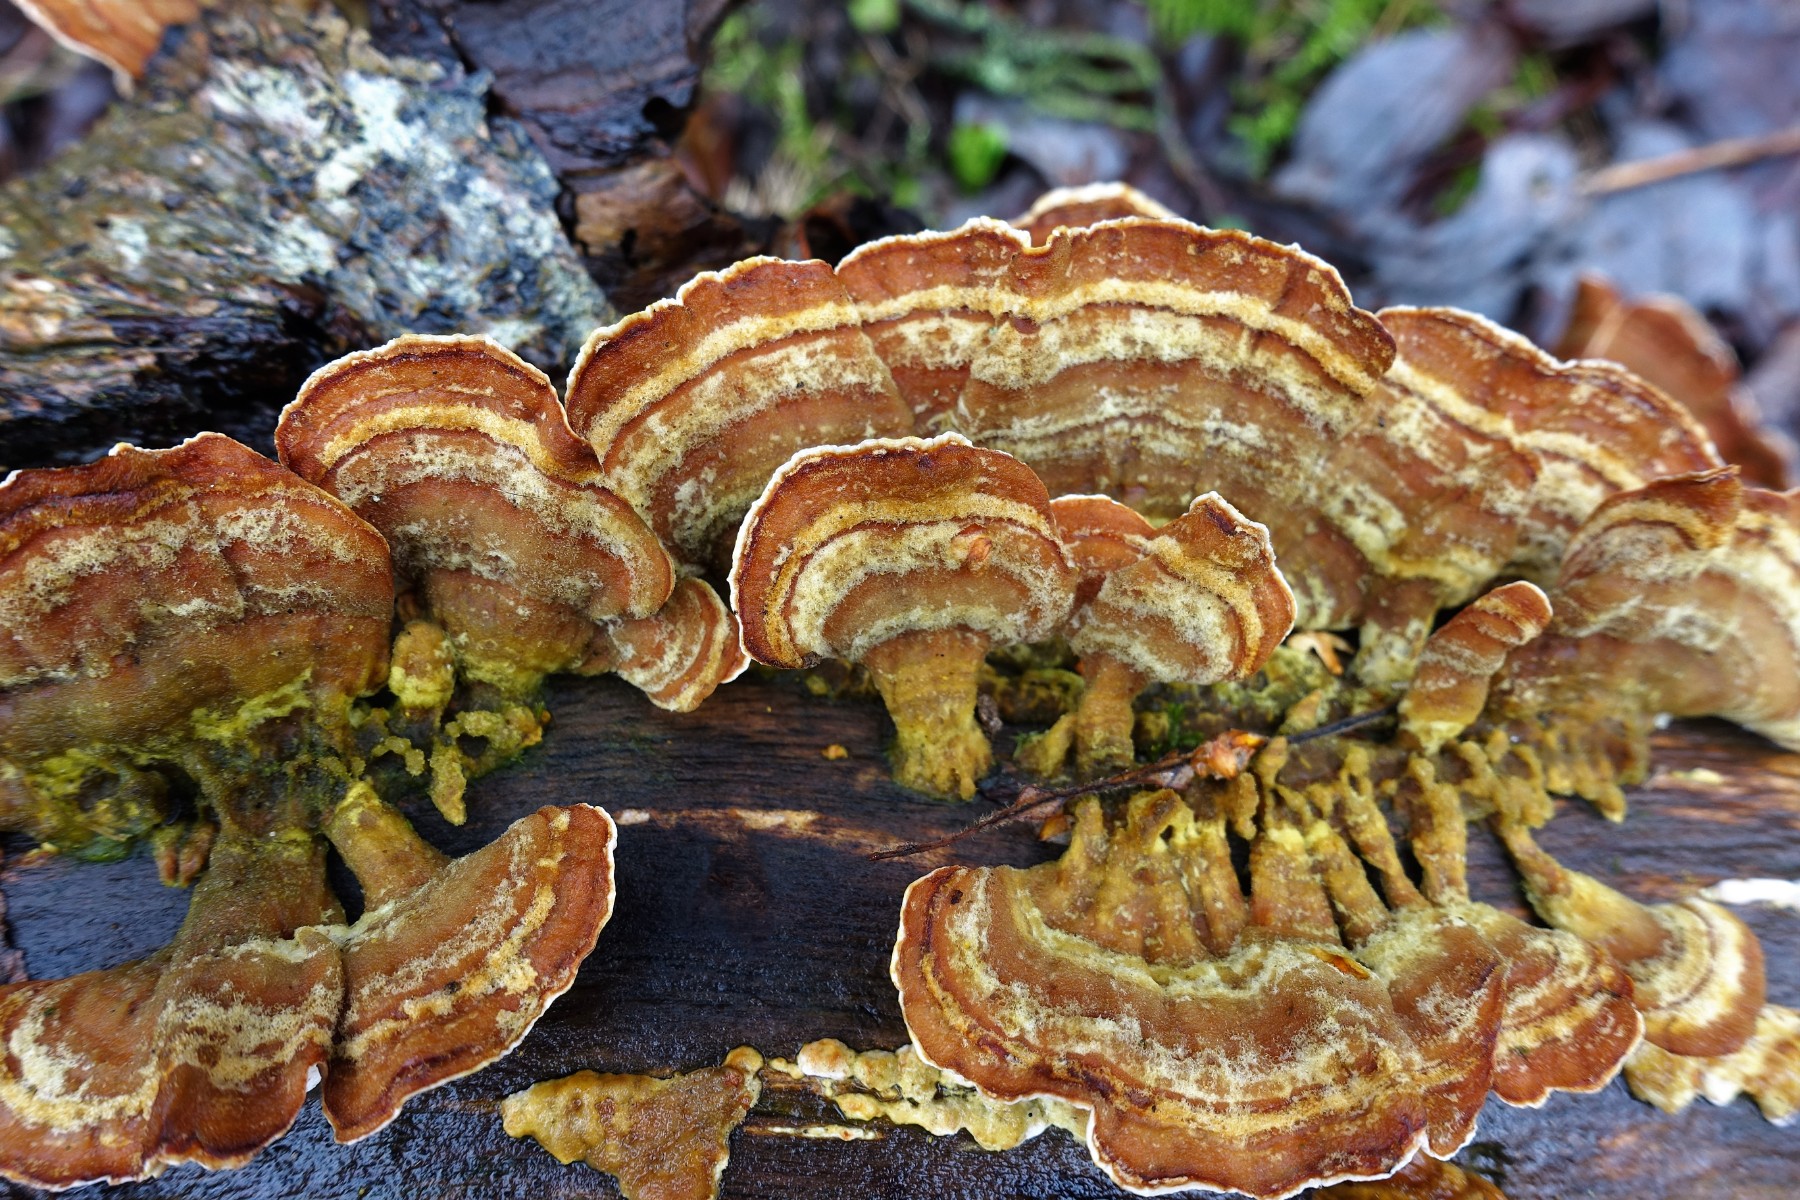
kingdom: Fungi
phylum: Basidiomycota
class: Agaricomycetes
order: Russulales
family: Stereaceae
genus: Stereum
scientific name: Stereum subtomentosum
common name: smuk lædersvamp
